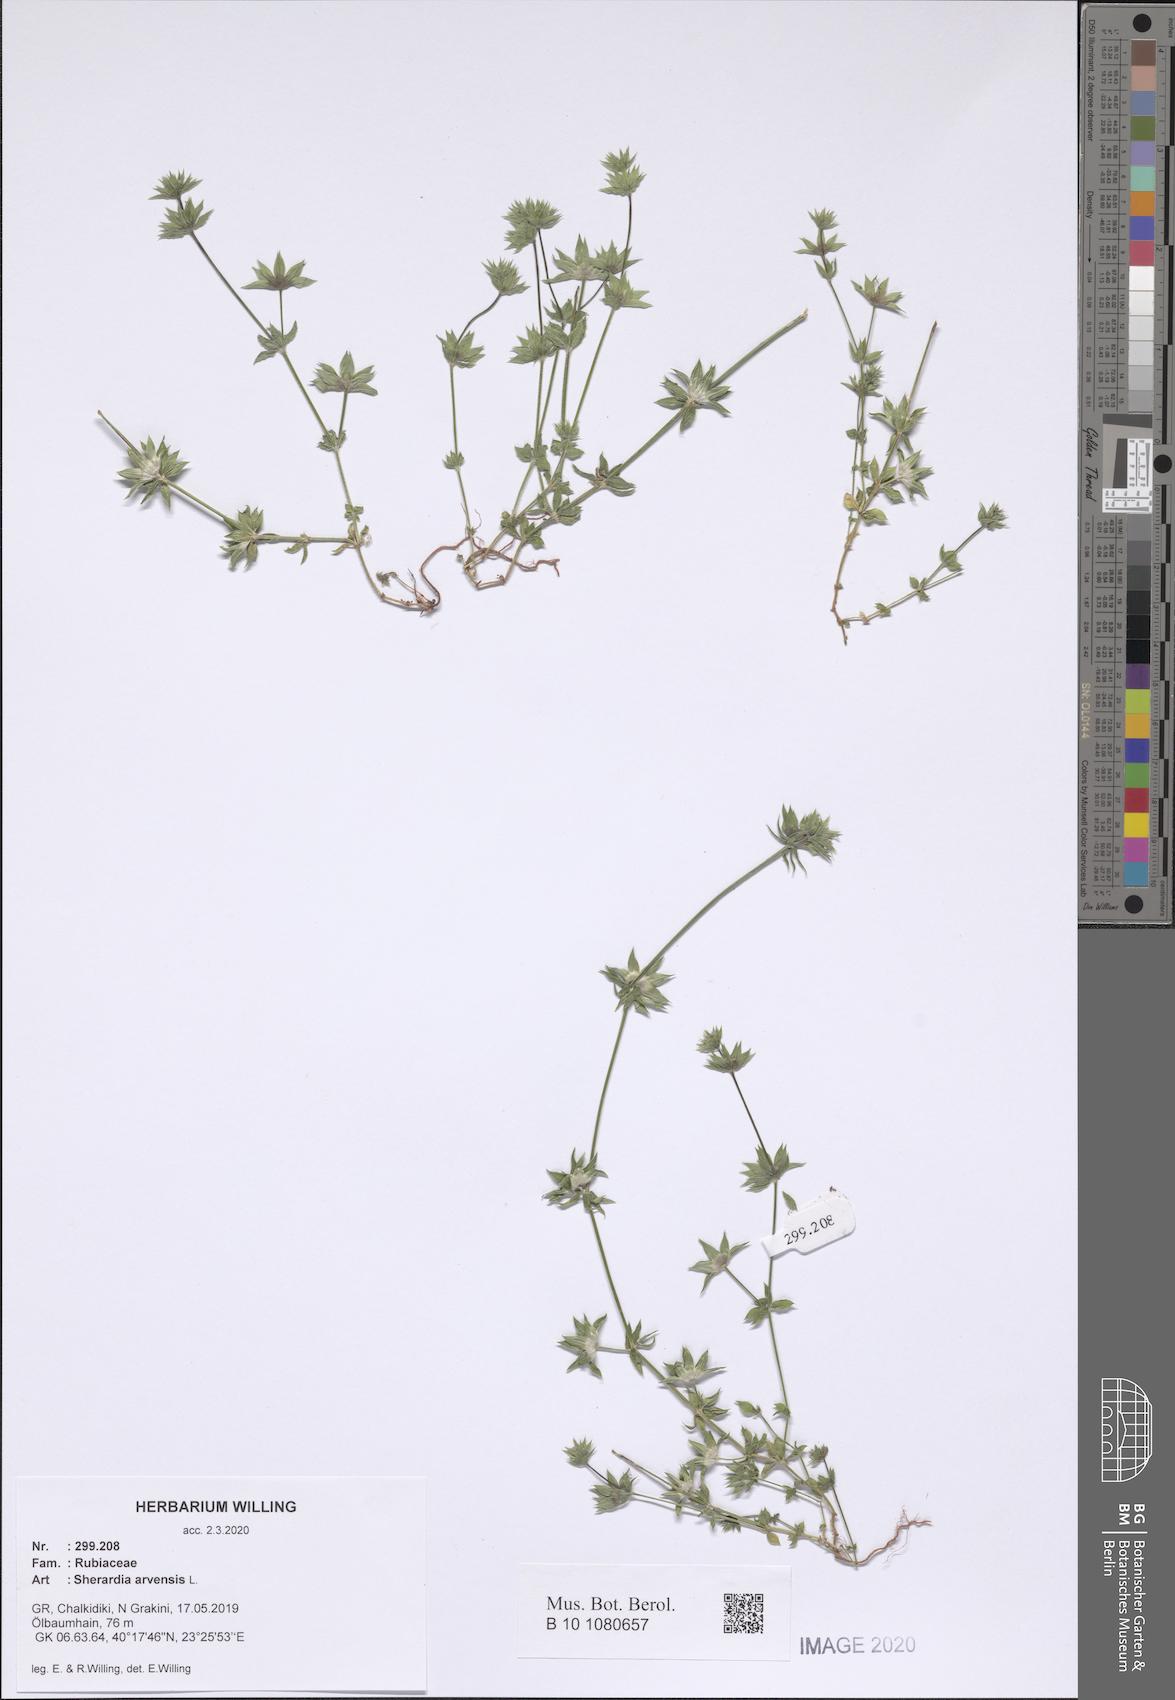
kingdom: Plantae
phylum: Tracheophyta
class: Magnoliopsida
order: Gentianales
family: Rubiaceae
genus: Sherardia
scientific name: Sherardia arvensis
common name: Field madder
